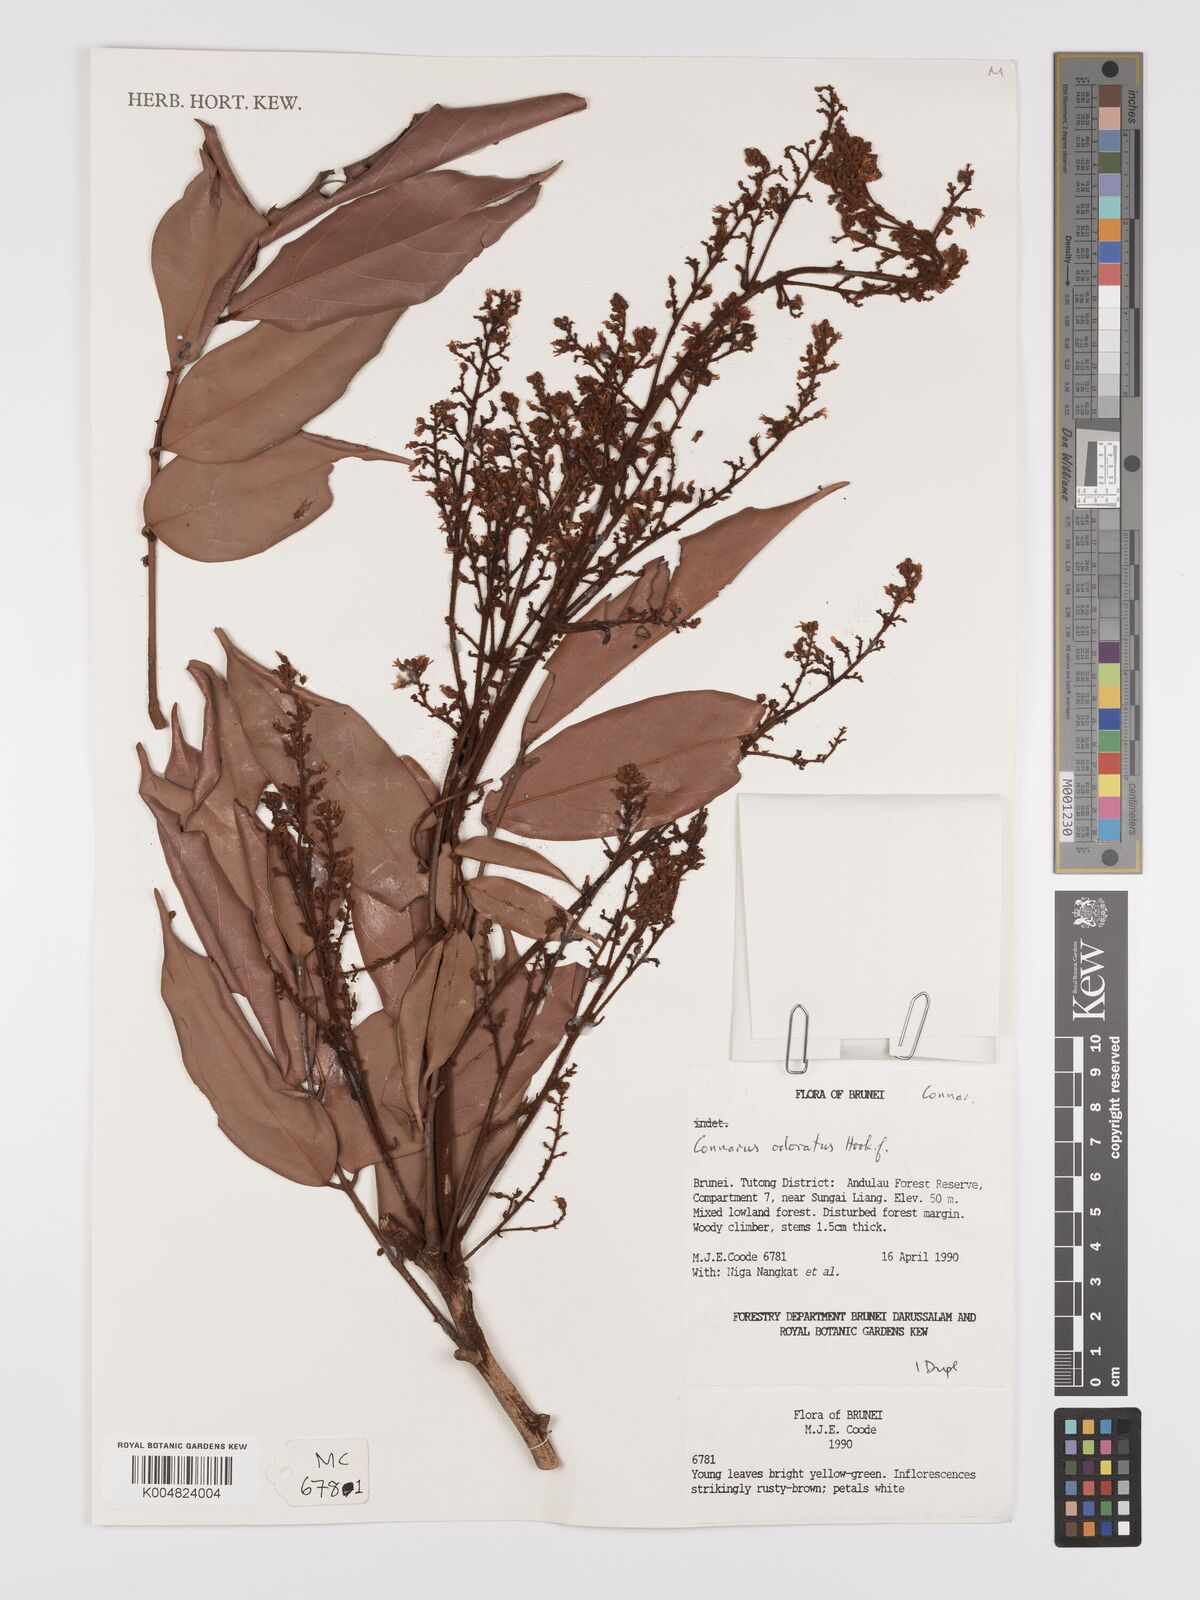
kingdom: Plantae
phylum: Tracheophyta
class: Magnoliopsida
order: Oxalidales
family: Connaraceae
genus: Connarus
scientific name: Connarus odoratus
